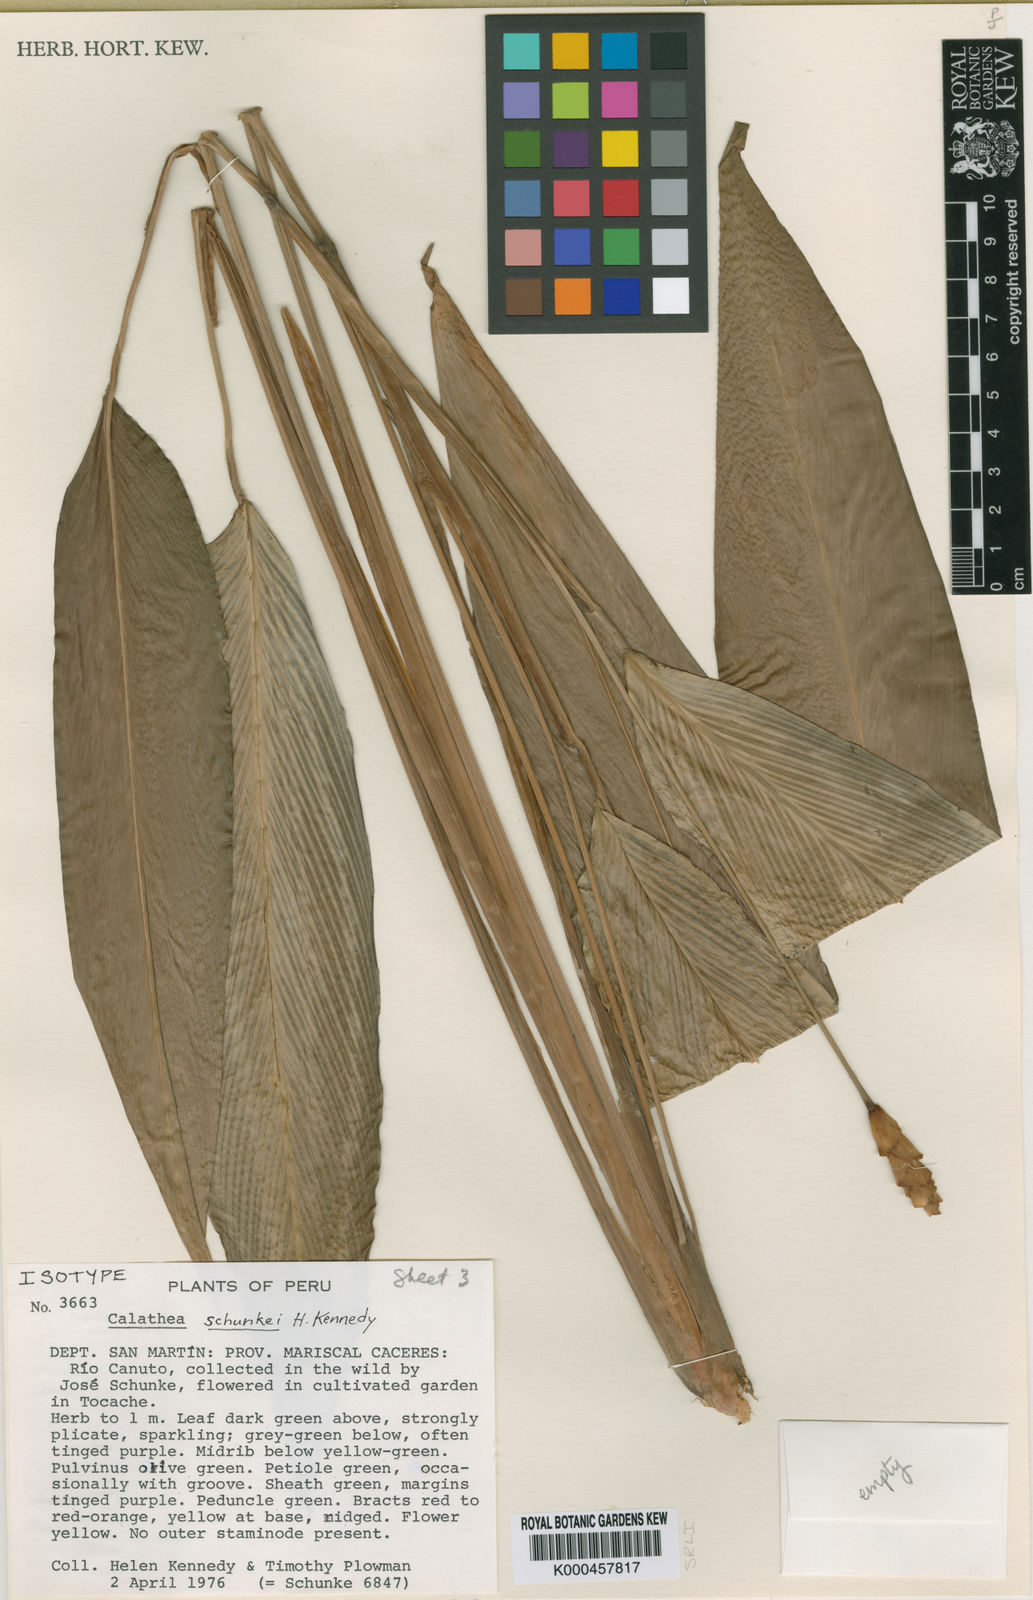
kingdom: Plantae
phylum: Tracheophyta
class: Liliopsida
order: Zingiberales
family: Marantaceae
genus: Goeppertia
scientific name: Goeppertia schunkei
